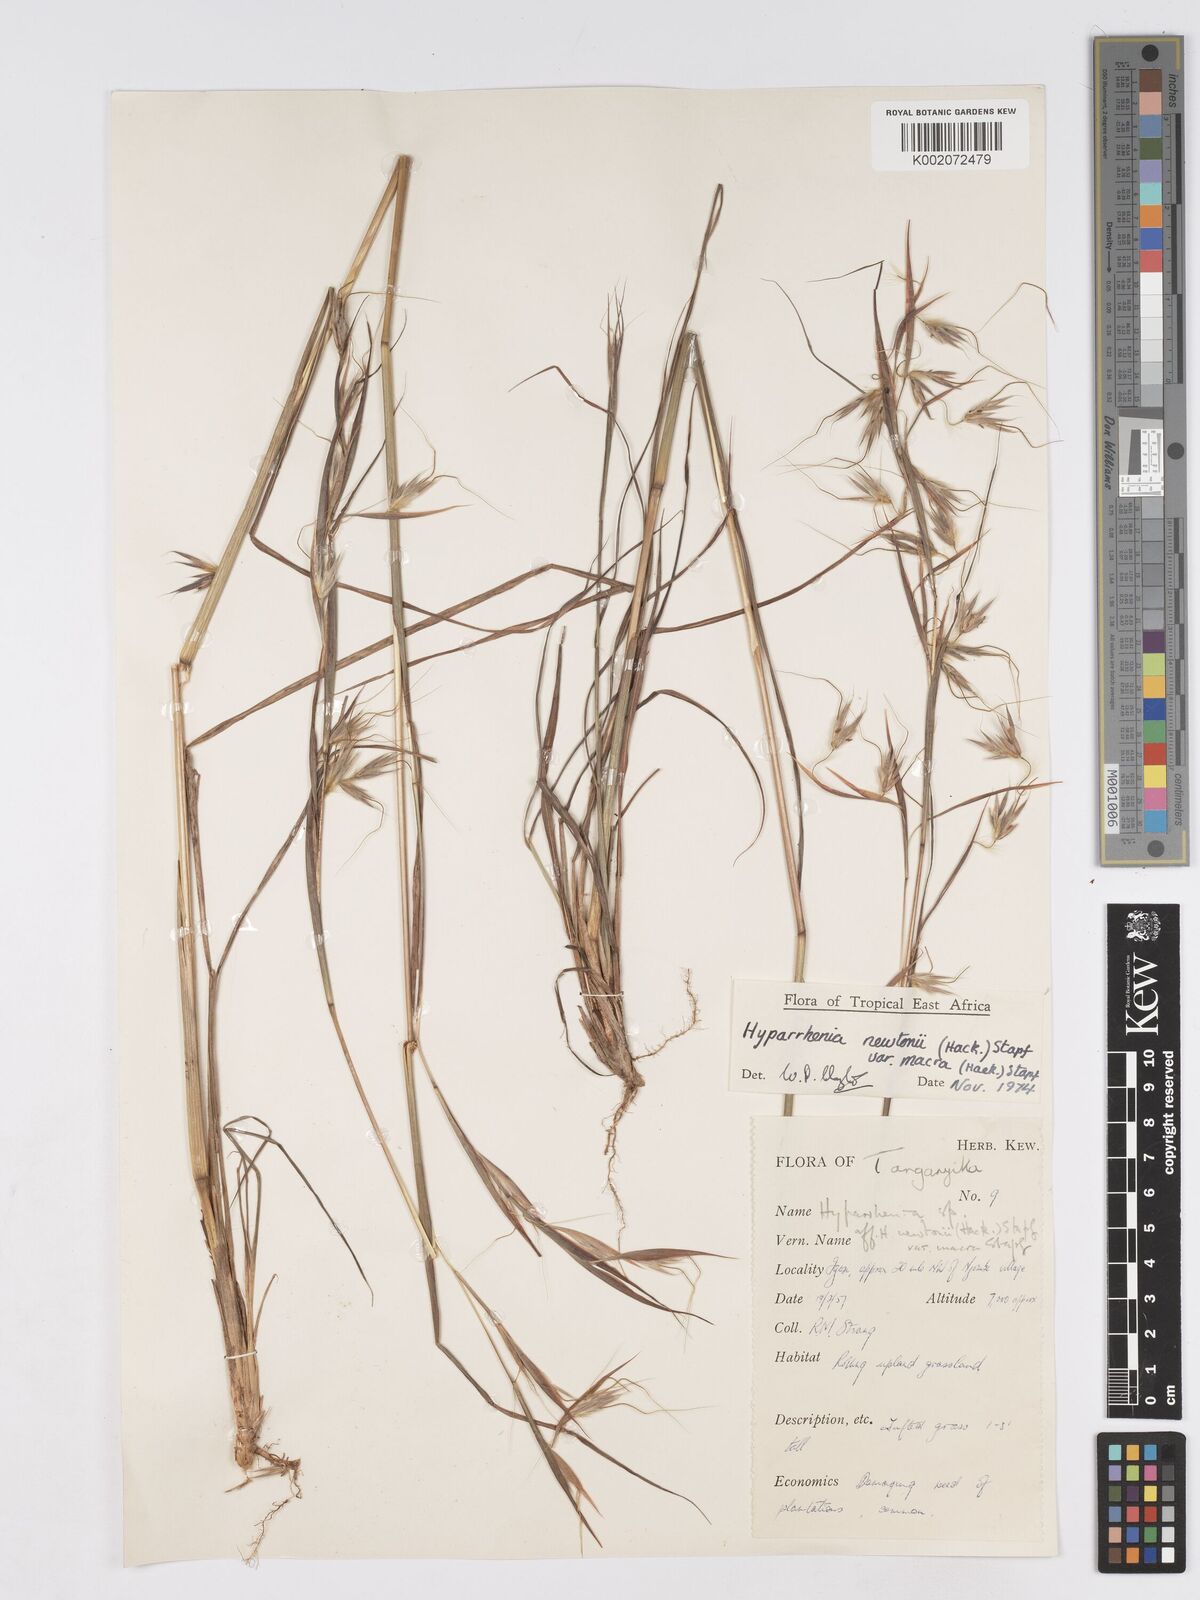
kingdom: Plantae
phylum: Tracheophyta
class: Liliopsida
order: Poales
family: Poaceae
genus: Hyparrhenia
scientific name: Hyparrhenia newtonii
